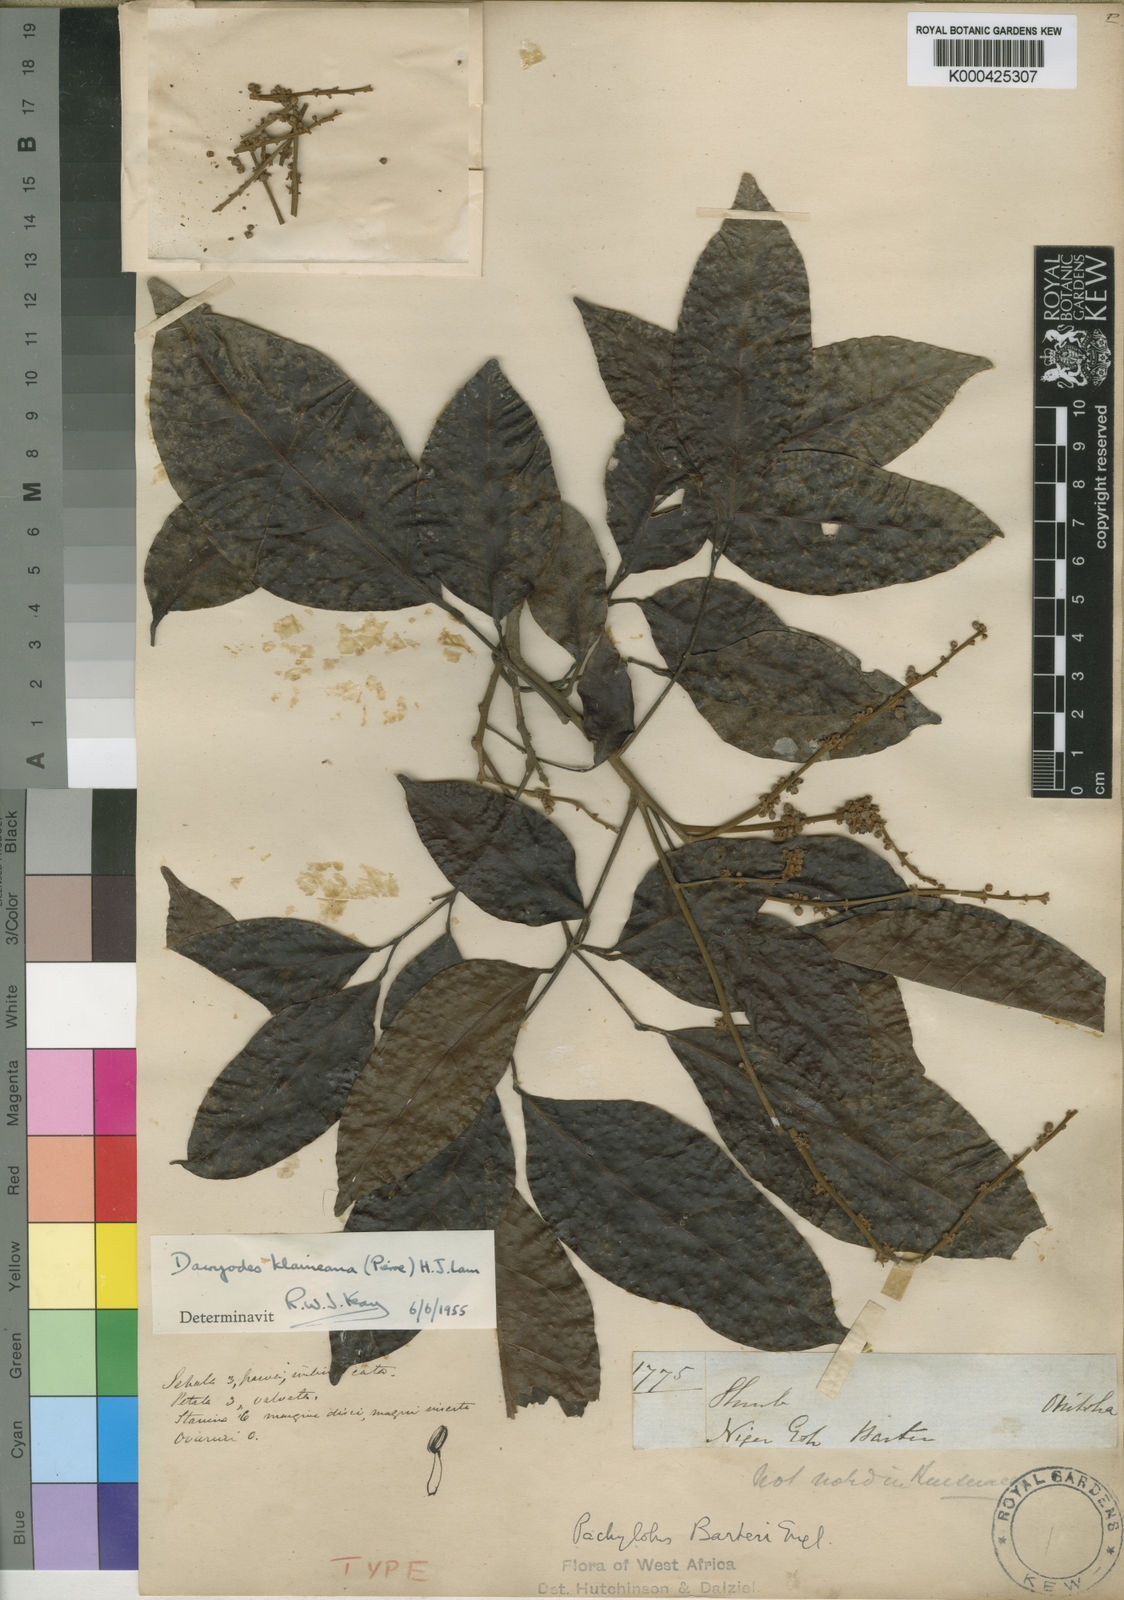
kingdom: Plantae
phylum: Tracheophyta
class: Magnoliopsida
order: Sapindales
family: Burseraceae
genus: Pachylobus
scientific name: Pachylobus klaineana
